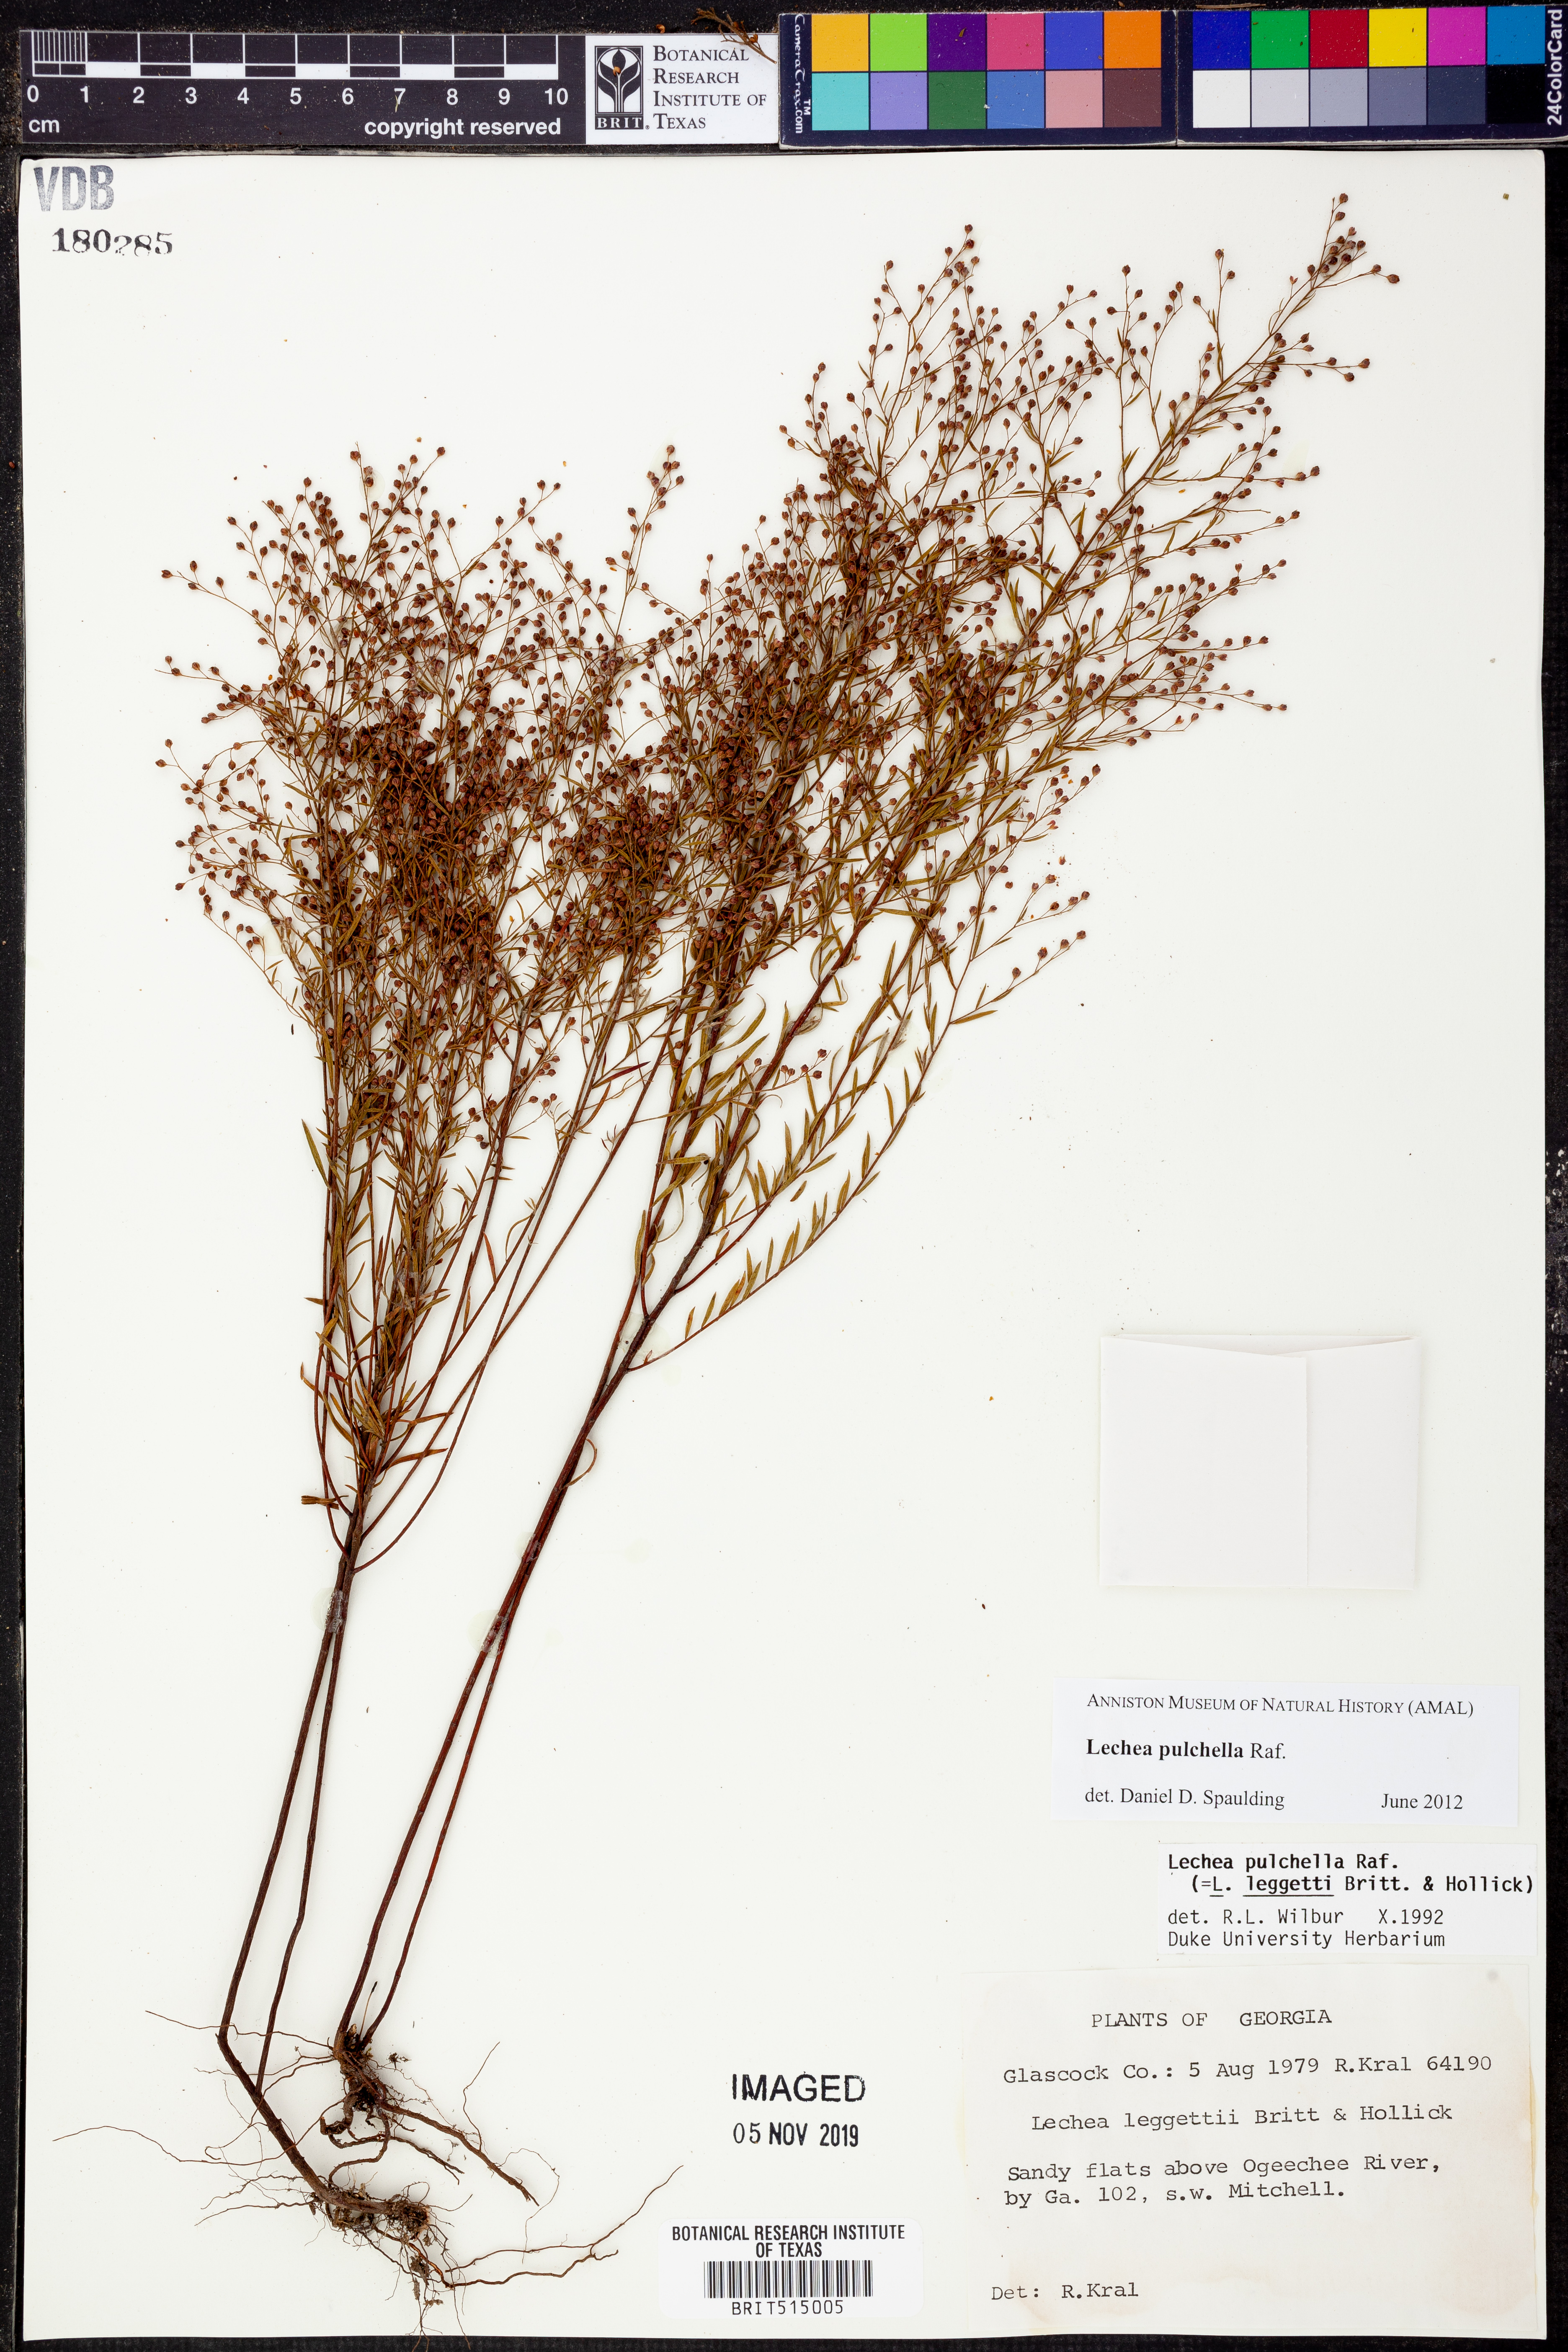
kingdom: Plantae
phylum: Tracheophyta
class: Magnoliopsida
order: Malvales
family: Cistaceae
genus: Lechea
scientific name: Lechea pulchella
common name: Leggett's pinweed
